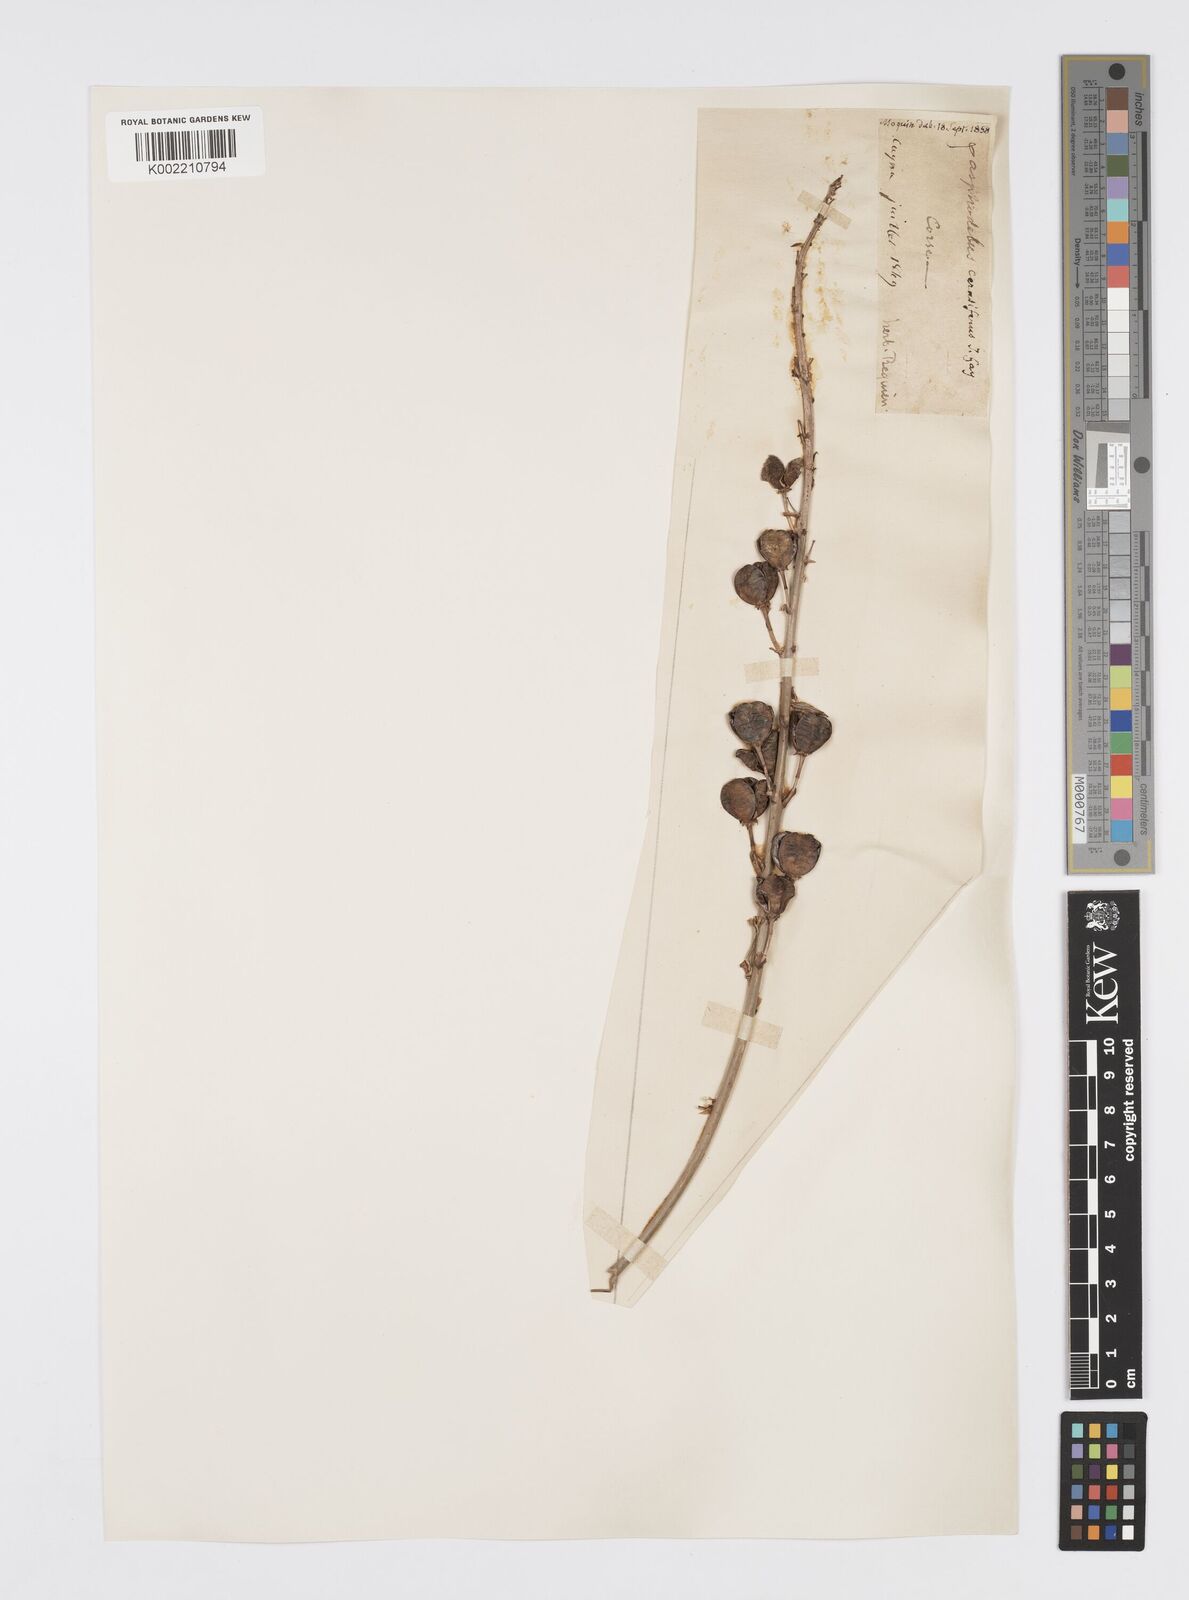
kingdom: Plantae
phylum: Tracheophyta
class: Liliopsida
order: Asparagales
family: Asphodelaceae
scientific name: Asphodelaceae
